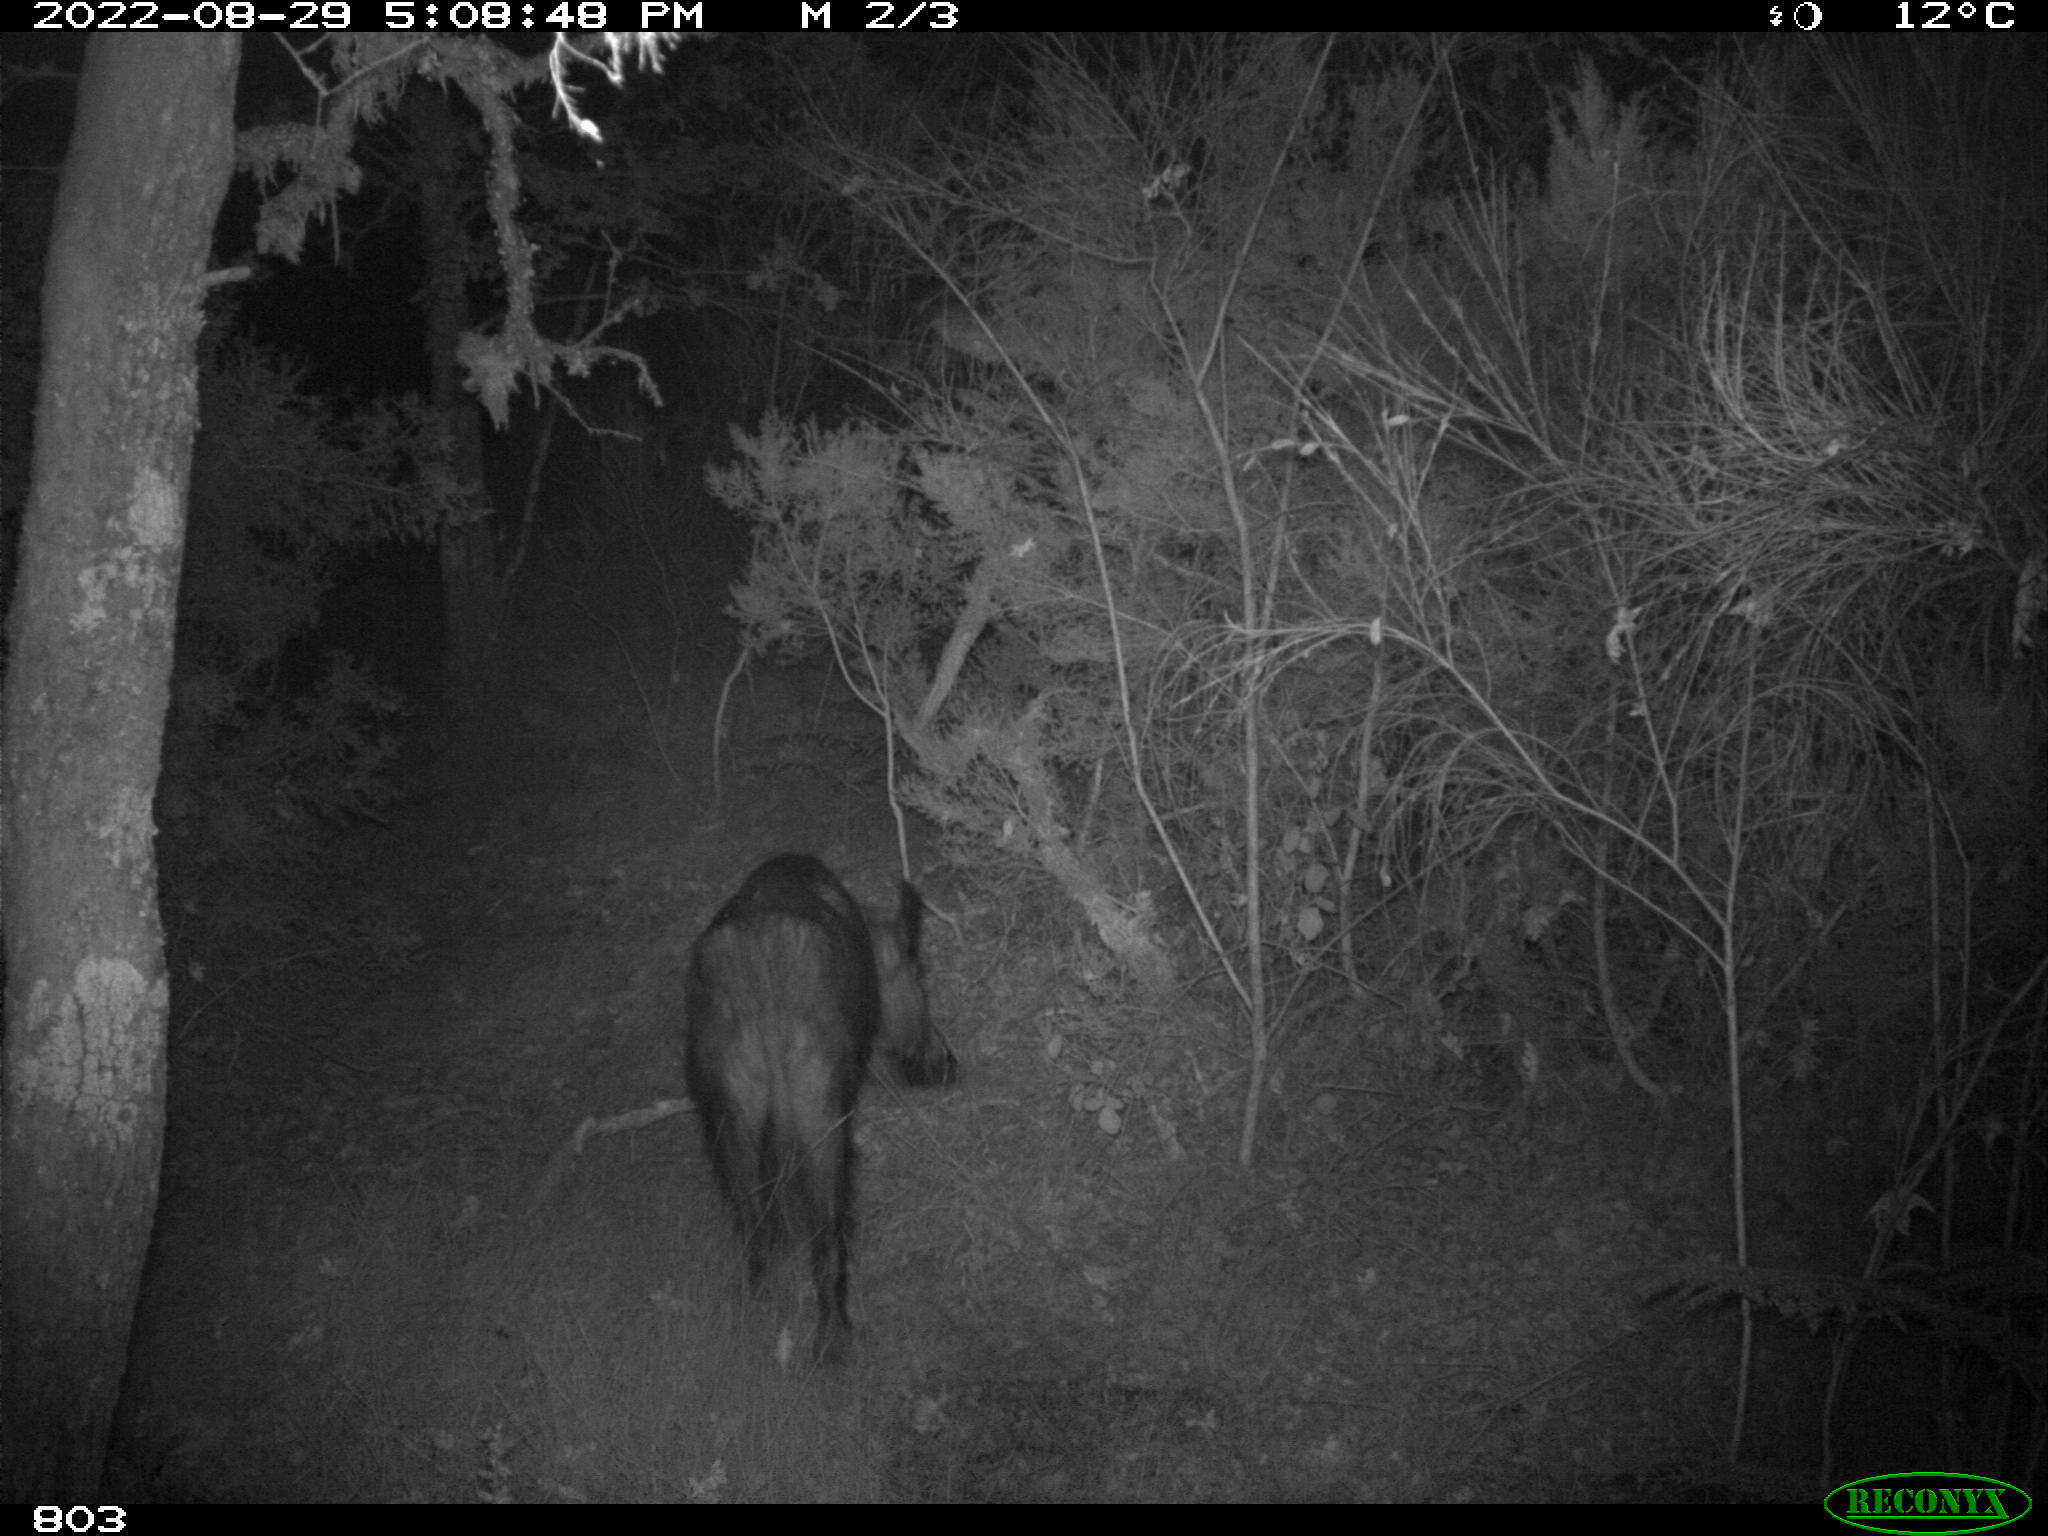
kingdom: Animalia
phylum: Chordata
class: Mammalia
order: Artiodactyla
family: Suidae
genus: Sus
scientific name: Sus scrofa
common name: Wild boar
